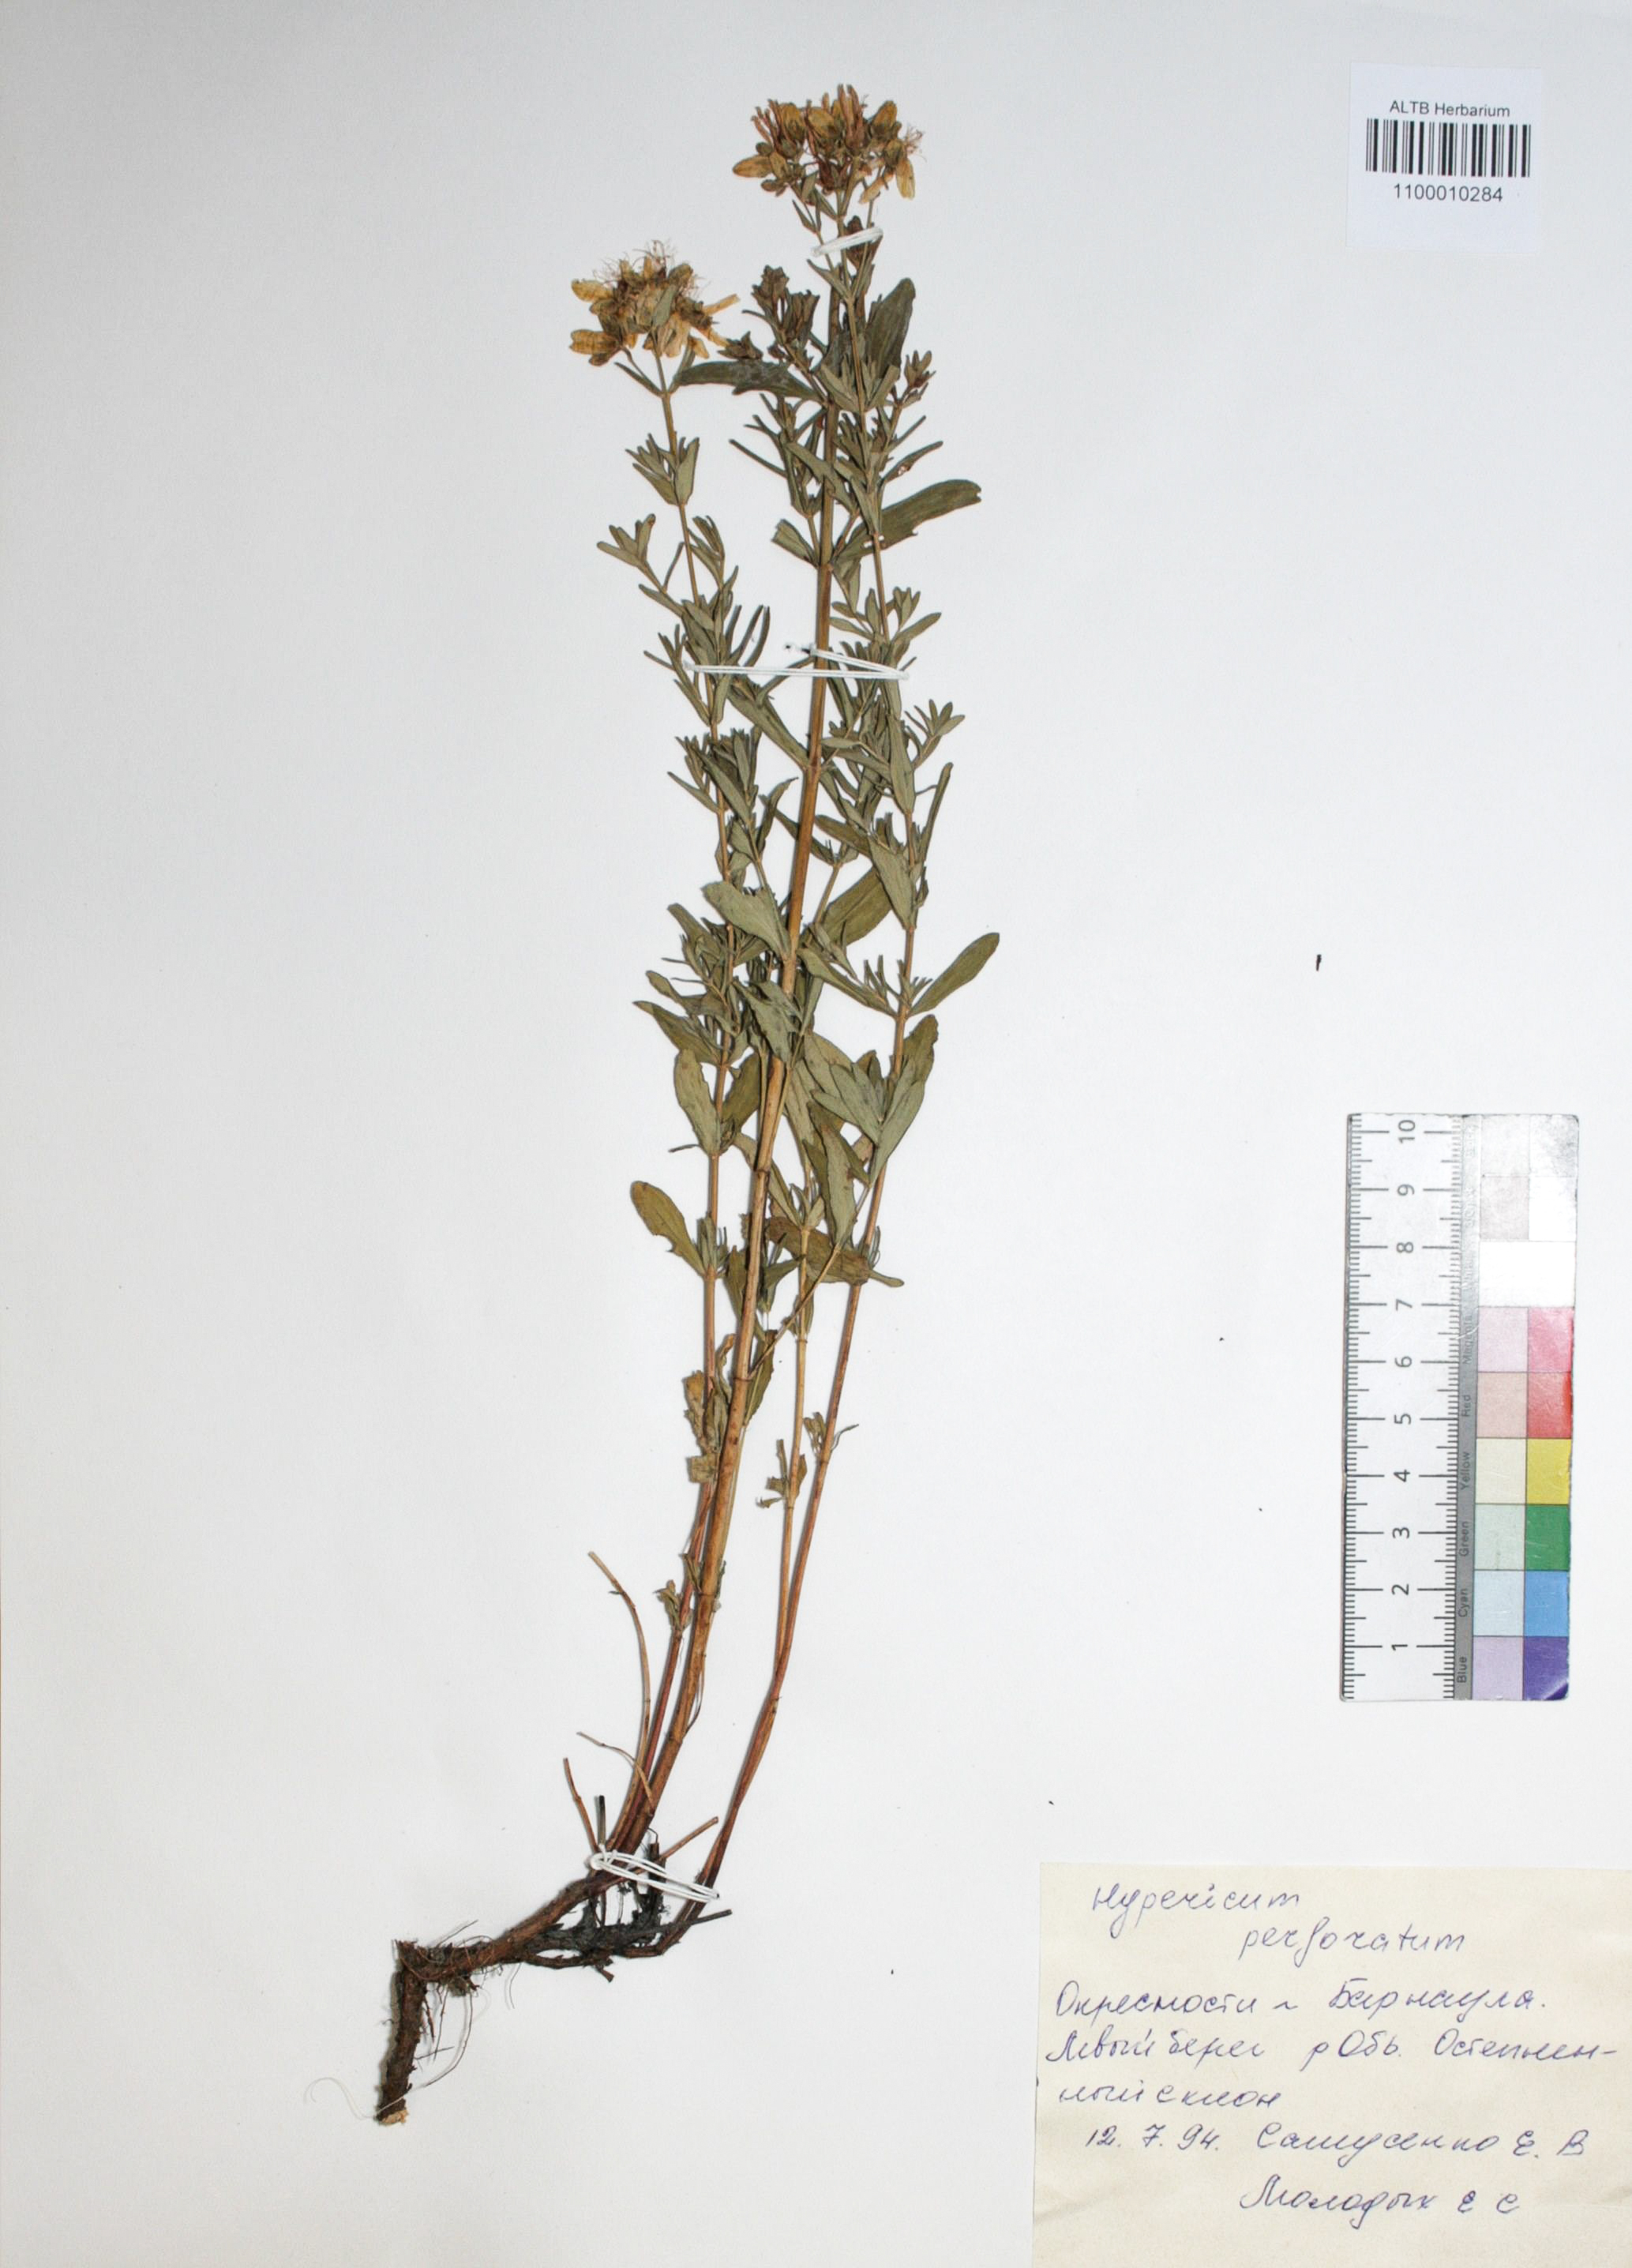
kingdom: Plantae
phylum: Tracheophyta
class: Magnoliopsida
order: Malpighiales
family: Hypericaceae
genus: Hypericum
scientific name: Hypericum perforatum
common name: Common st. johnswort
